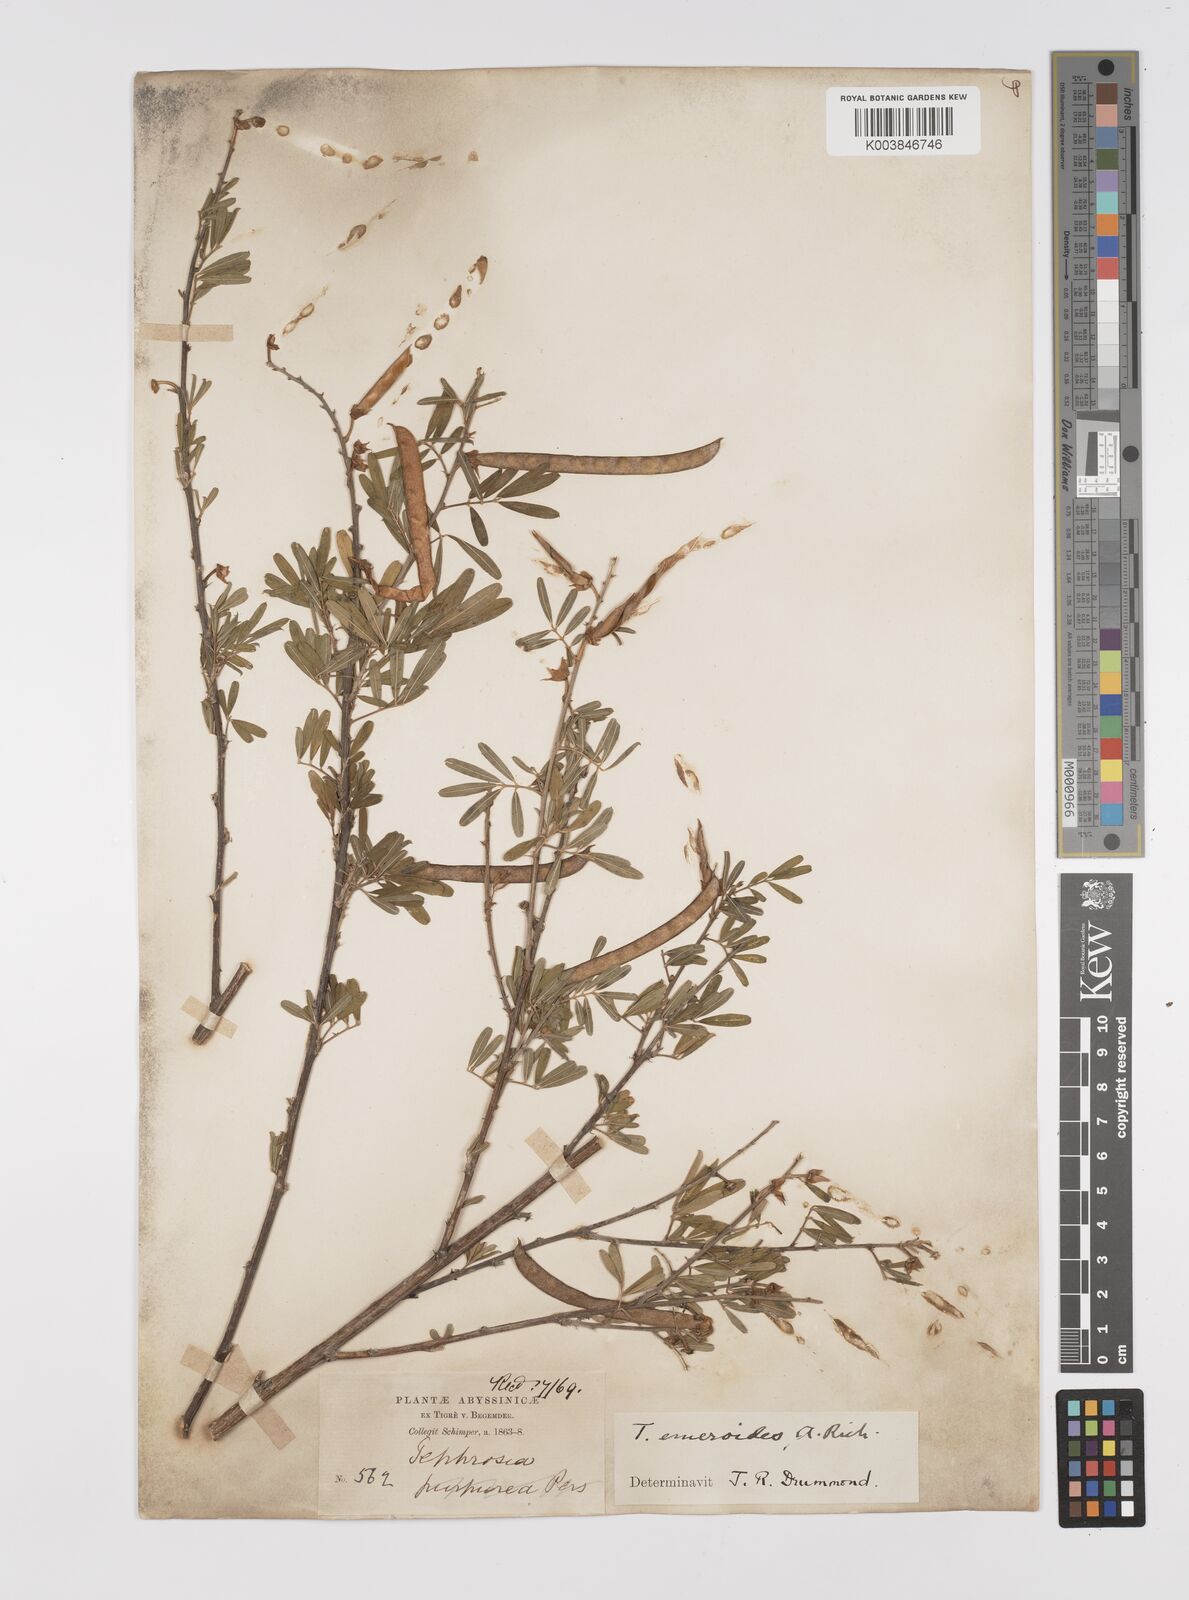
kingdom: Plantae
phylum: Tracheophyta
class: Magnoliopsida
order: Fabales
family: Fabaceae
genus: Tephrosia
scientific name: Tephrosia emeroides
